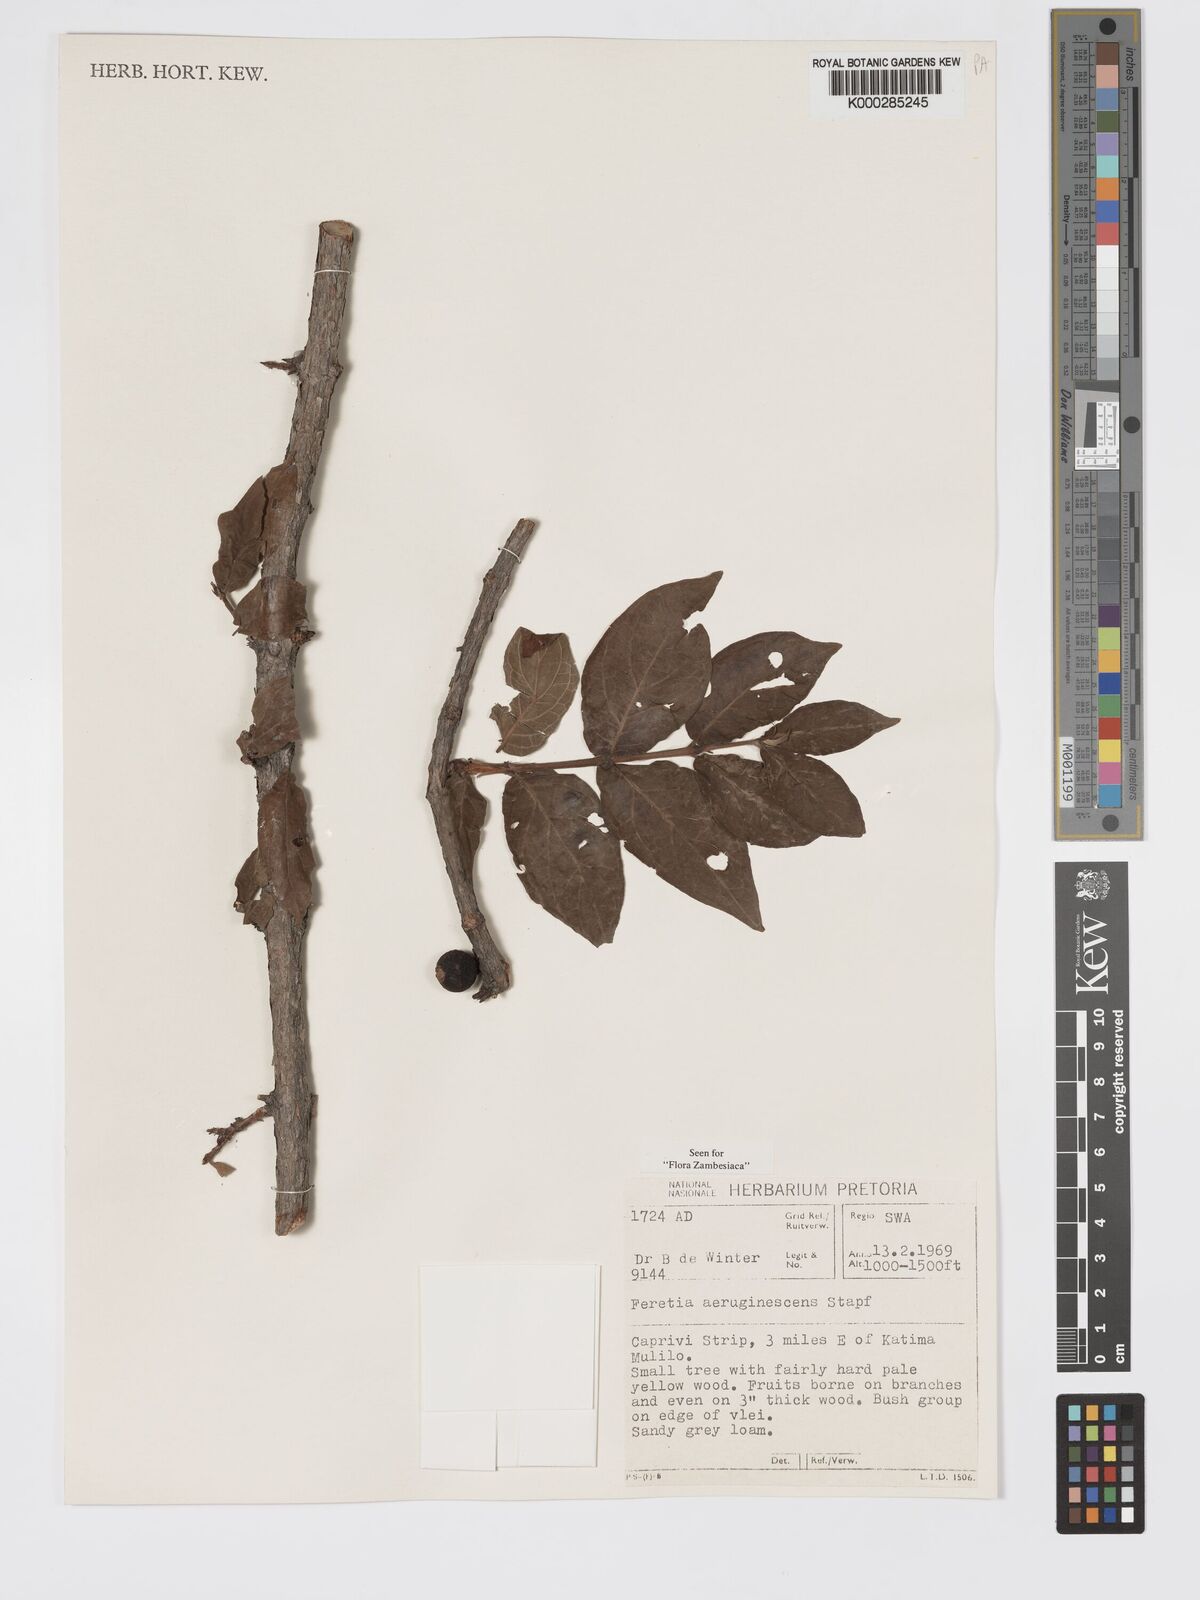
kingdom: Plantae
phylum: Tracheophyta
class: Magnoliopsida
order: Gentianales
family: Rubiaceae
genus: Feretia
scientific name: Feretia aeruginescens
